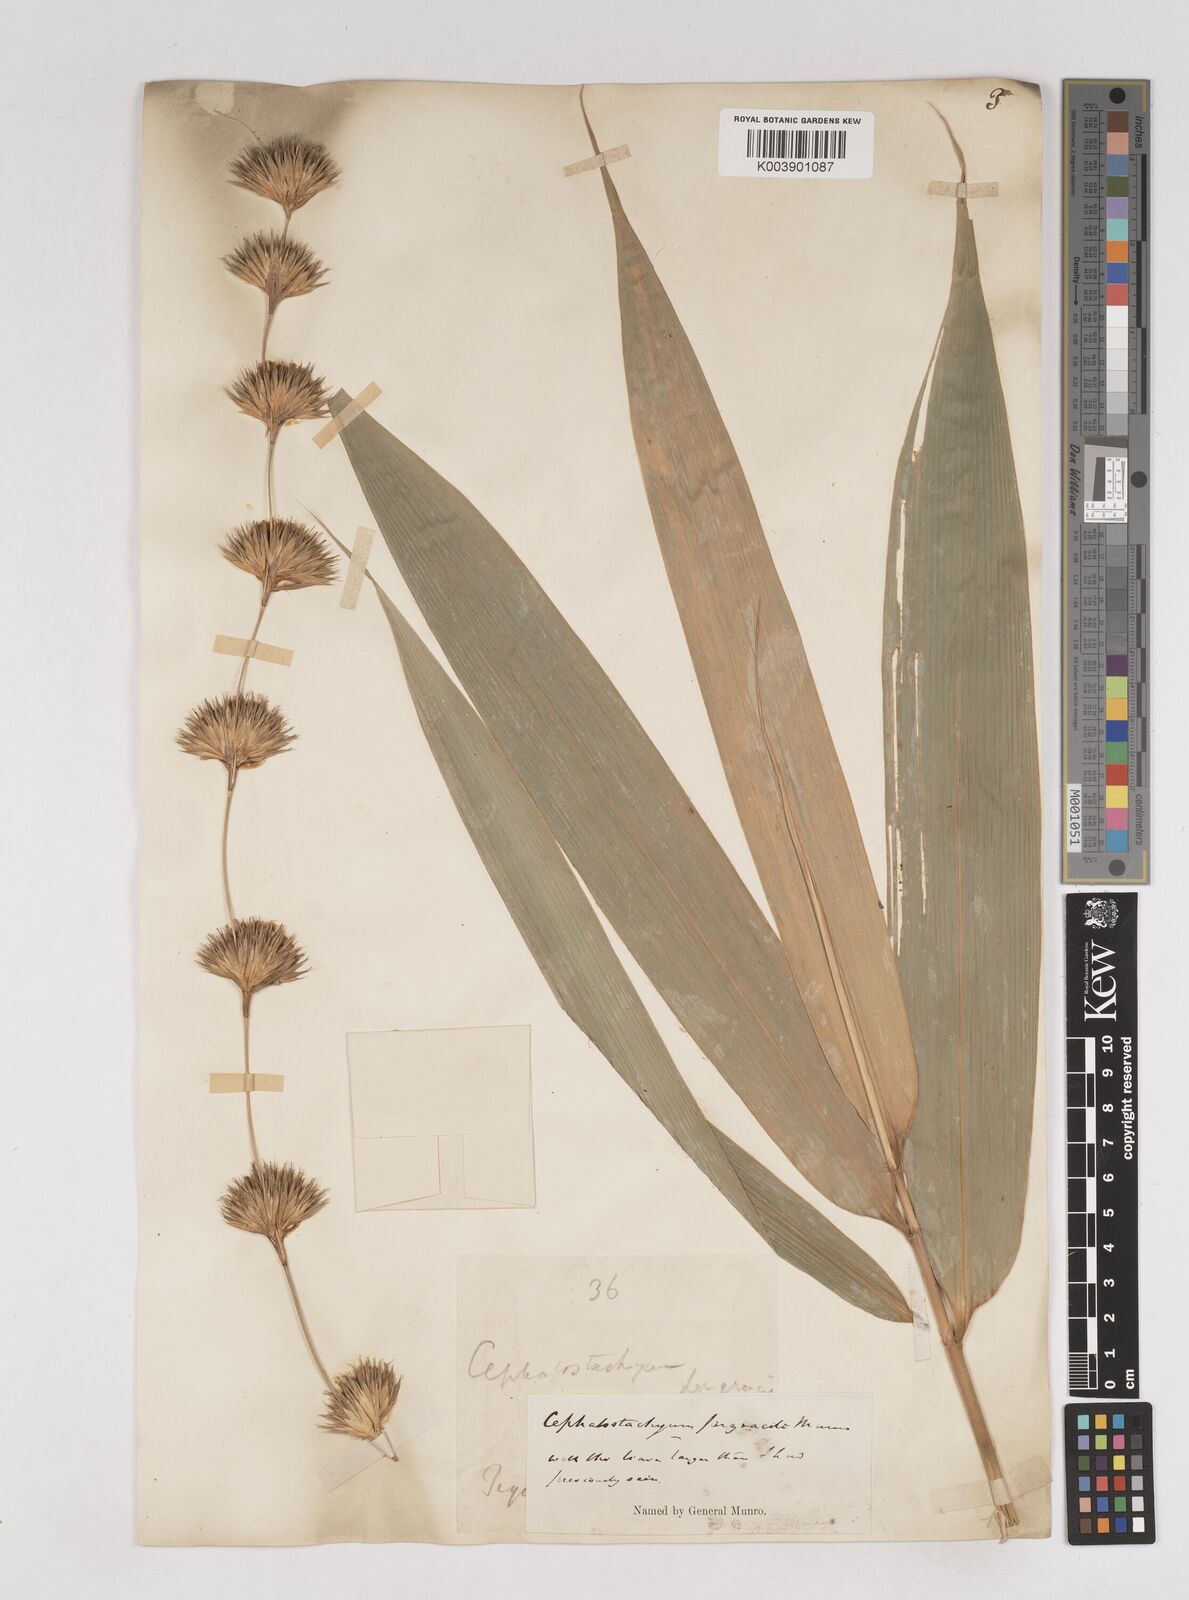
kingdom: Plantae
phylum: Tracheophyta
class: Liliopsida
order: Poales
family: Poaceae
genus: Schizostachyum
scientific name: Schizostachyum pergracile
